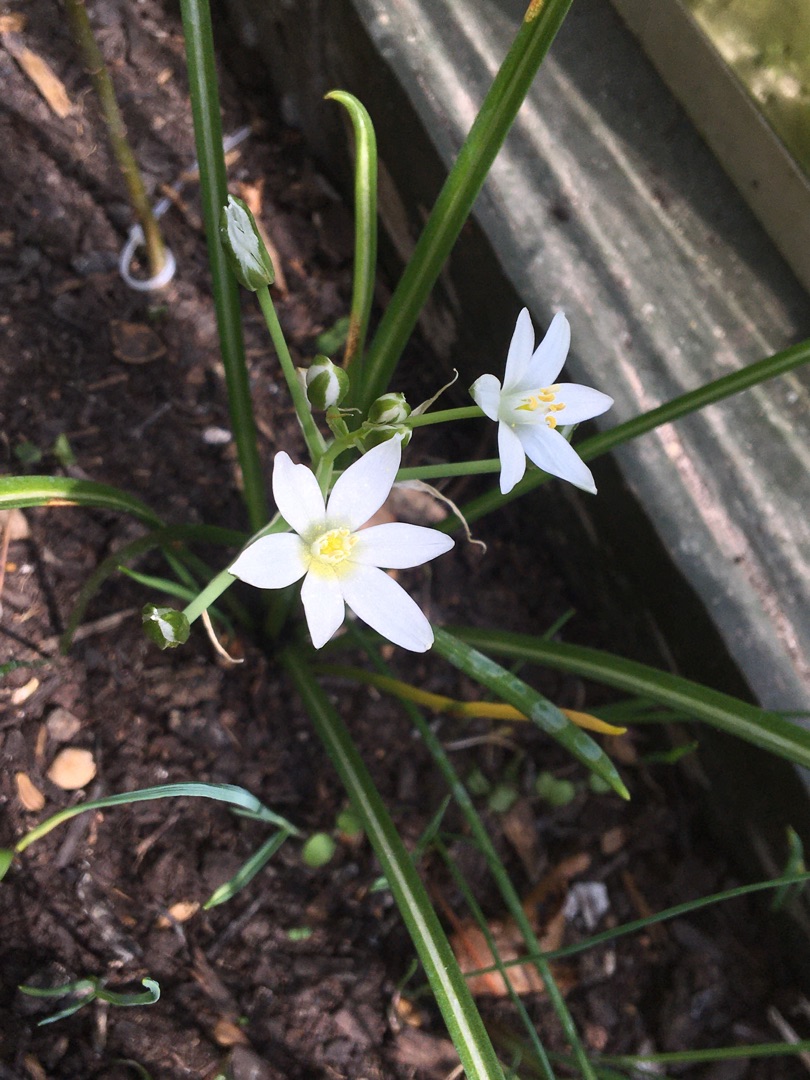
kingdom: Plantae
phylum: Tracheophyta
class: Liliopsida
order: Asparagales
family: Asparagaceae
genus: Ornithogalum
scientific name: Ornithogalum divergens
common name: Udspærret fuglemælk
